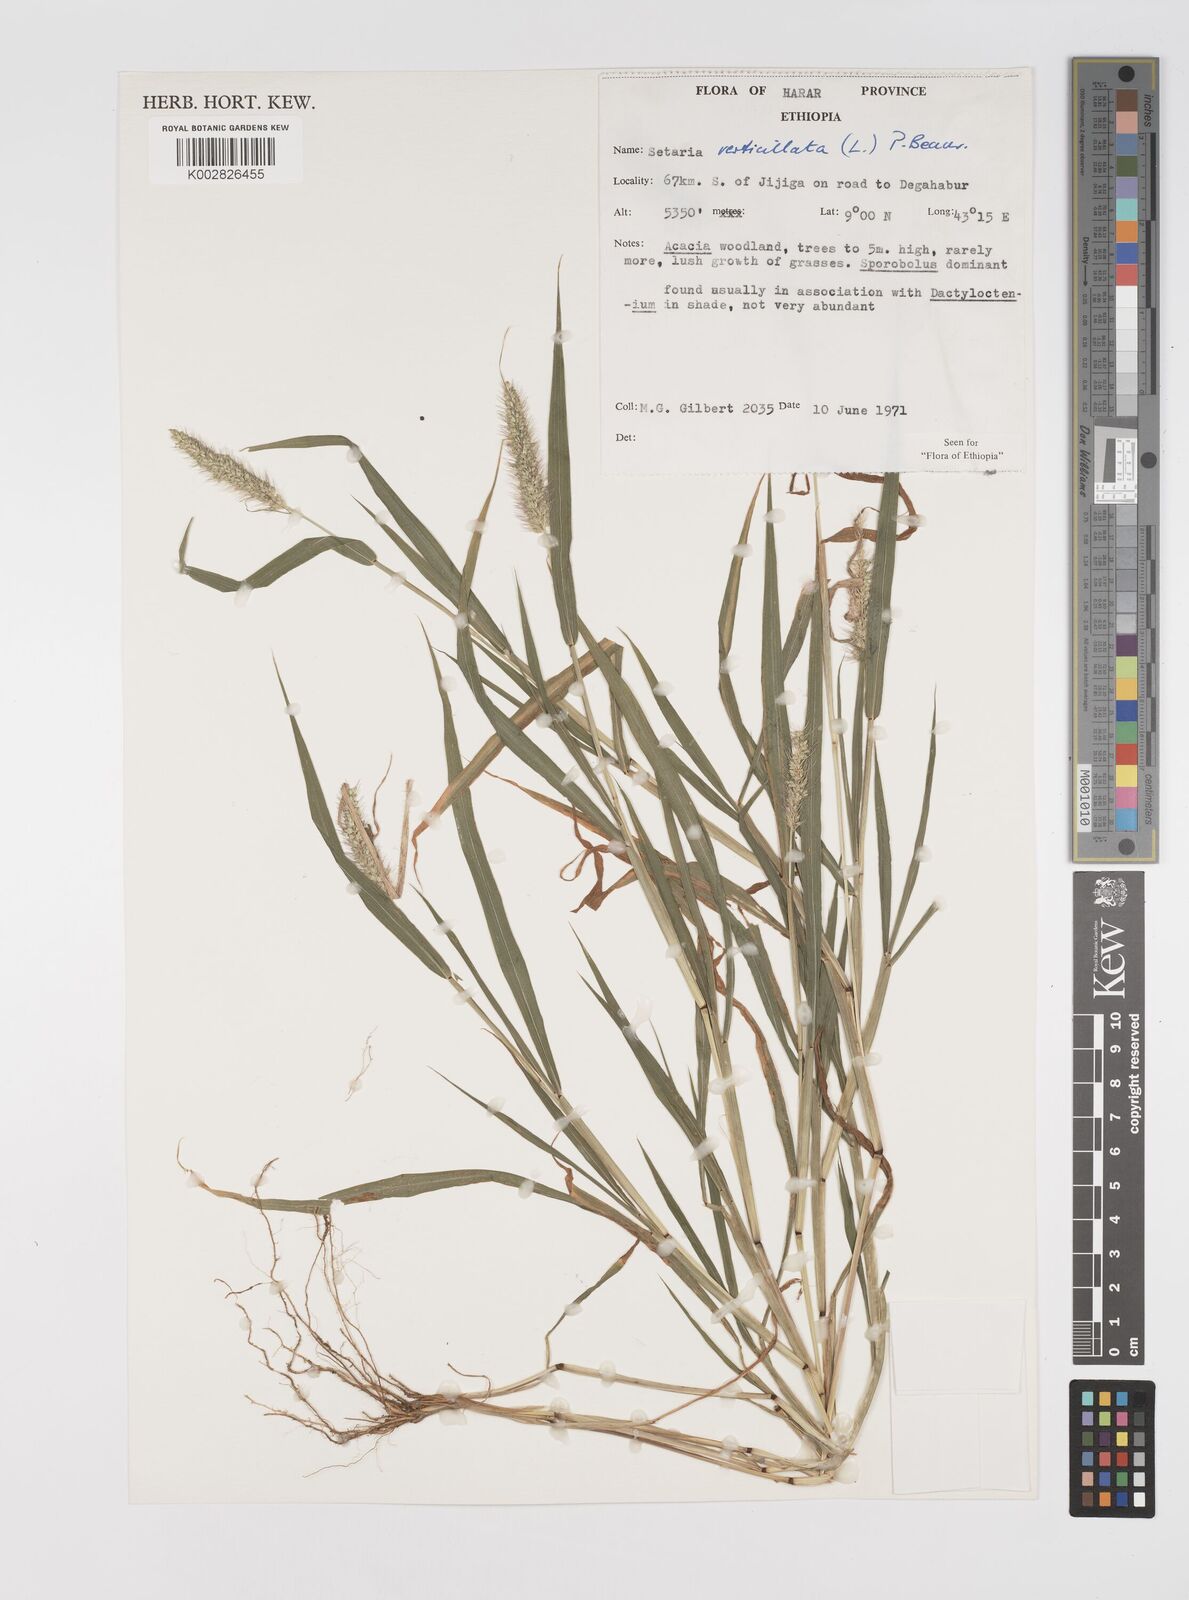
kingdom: Plantae
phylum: Tracheophyta
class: Liliopsida
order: Poales
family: Poaceae
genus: Setaria
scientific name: Setaria verticillata
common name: Hooked bristlegrass
